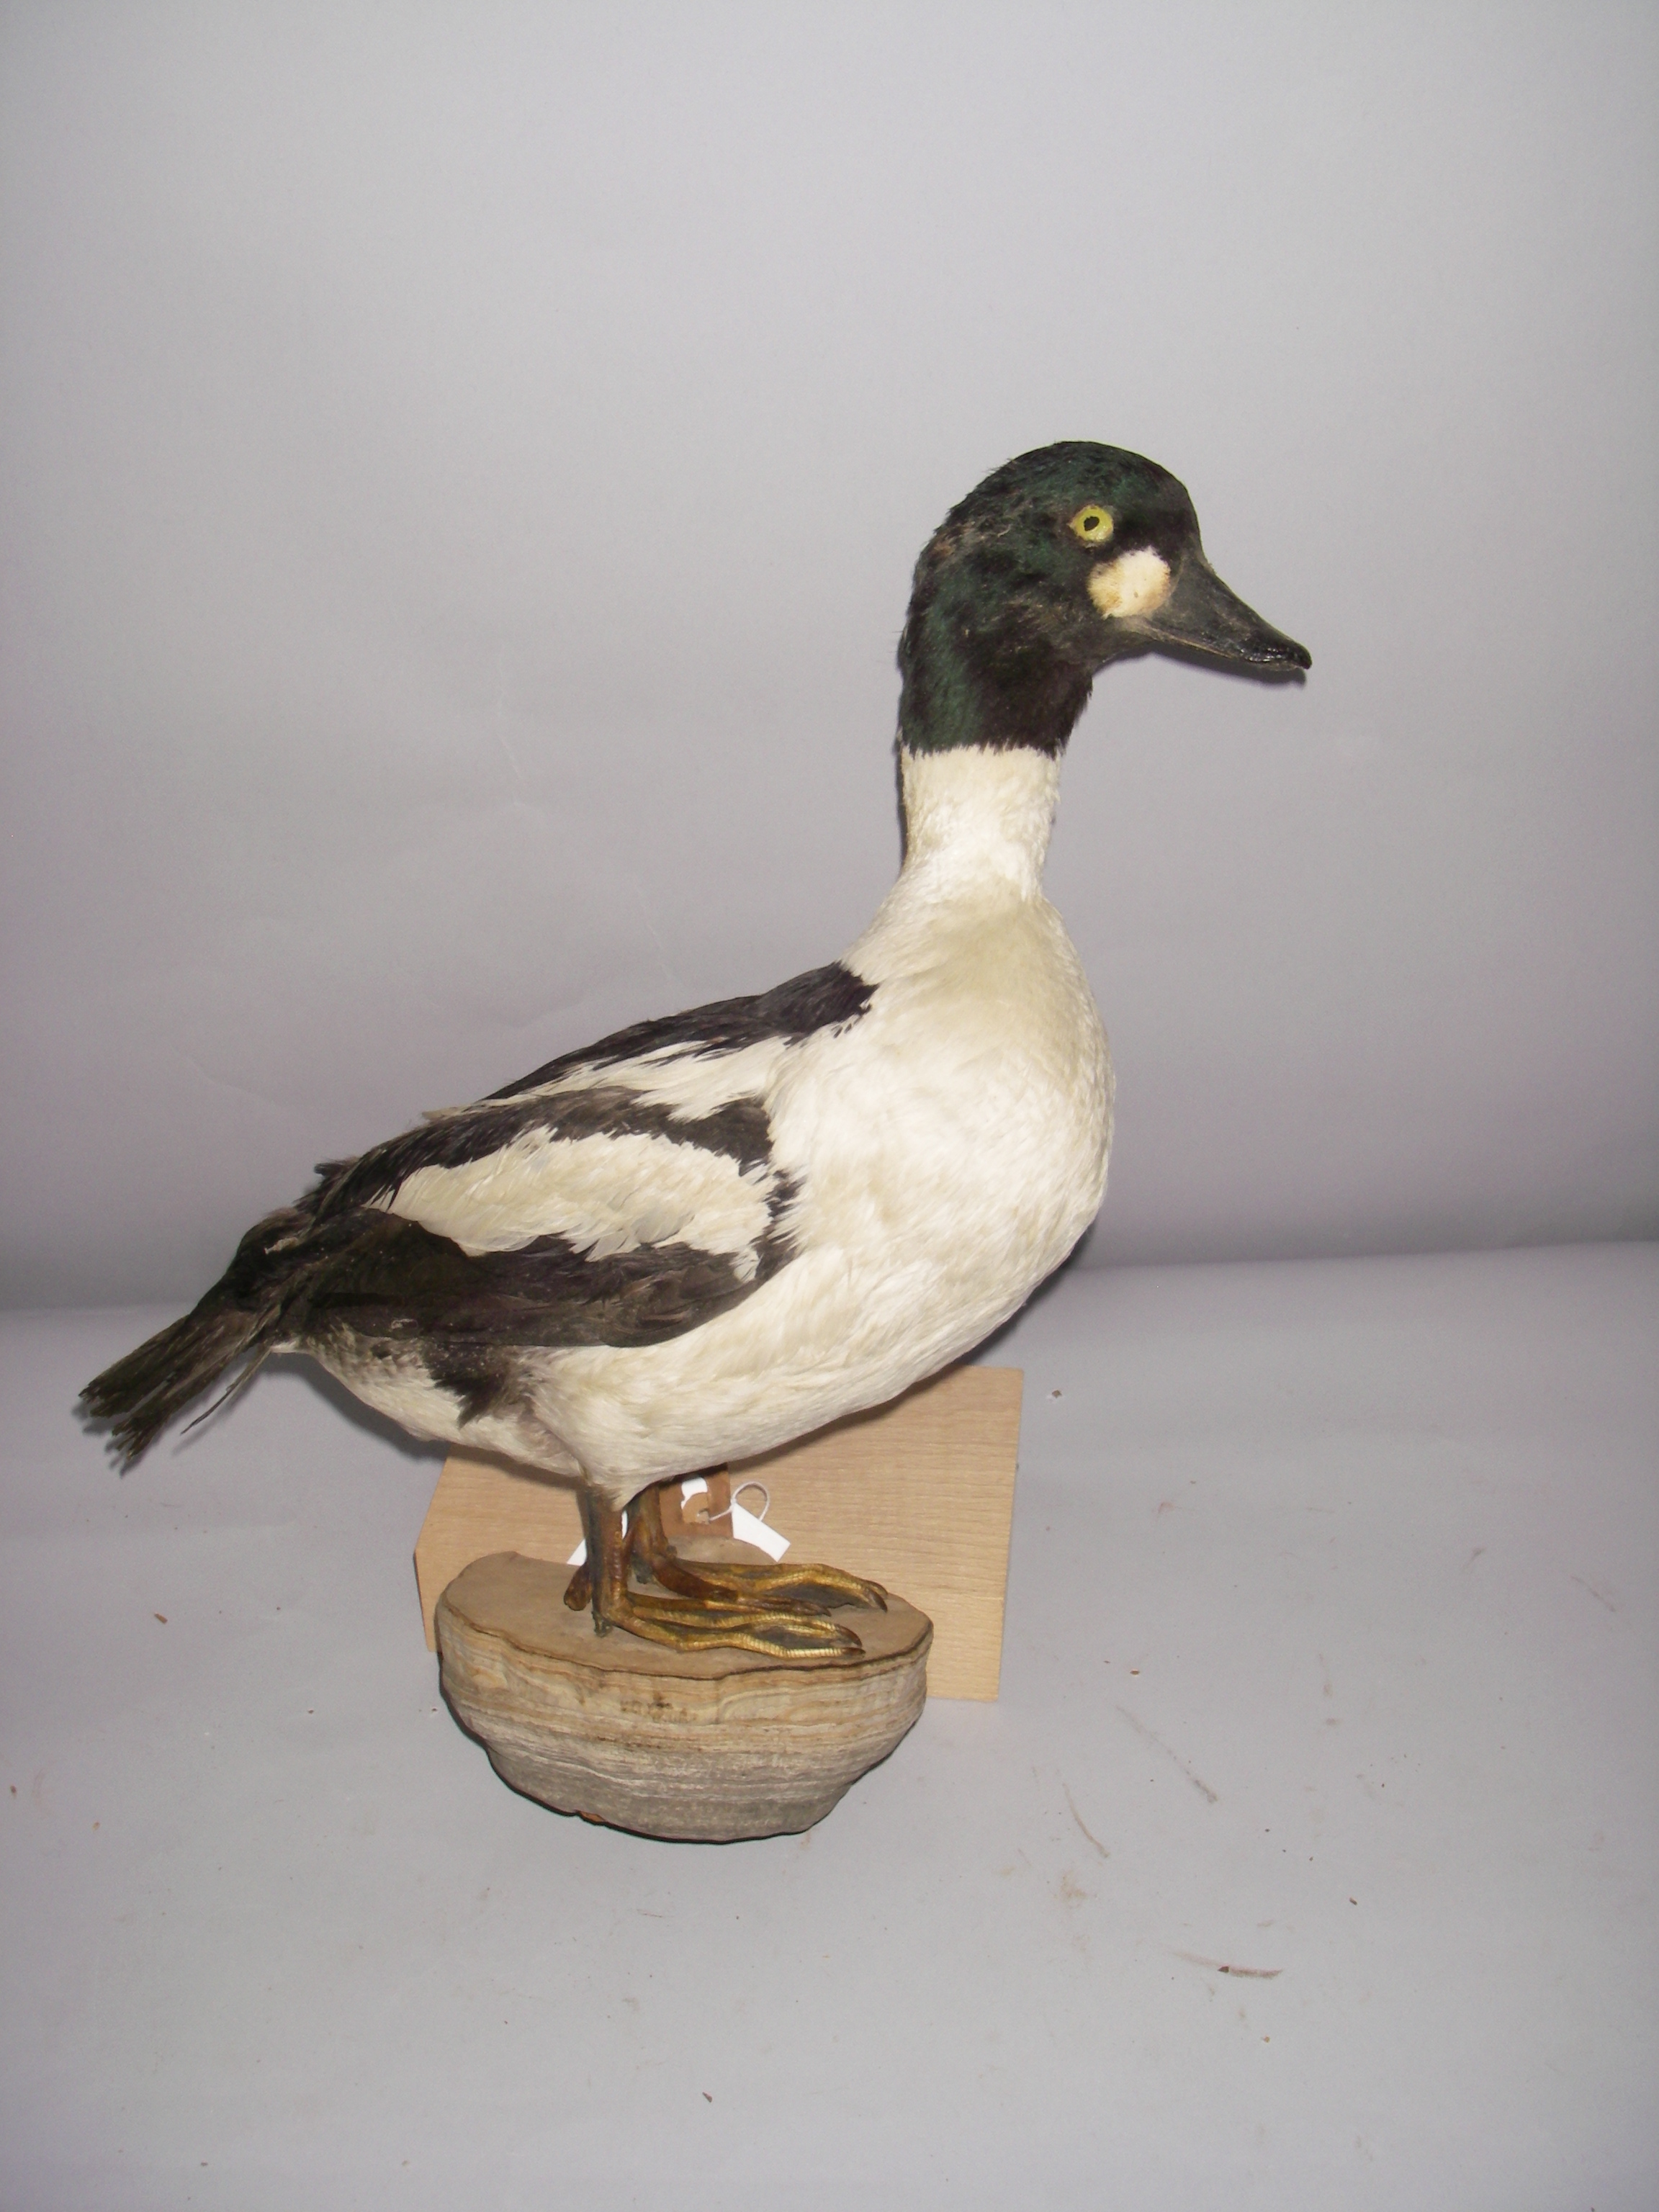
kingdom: Animalia
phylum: Chordata
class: Aves
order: Anseriformes
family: Anatidae
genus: Bucephala
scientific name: Bucephala clangula
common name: Common goldeneye
